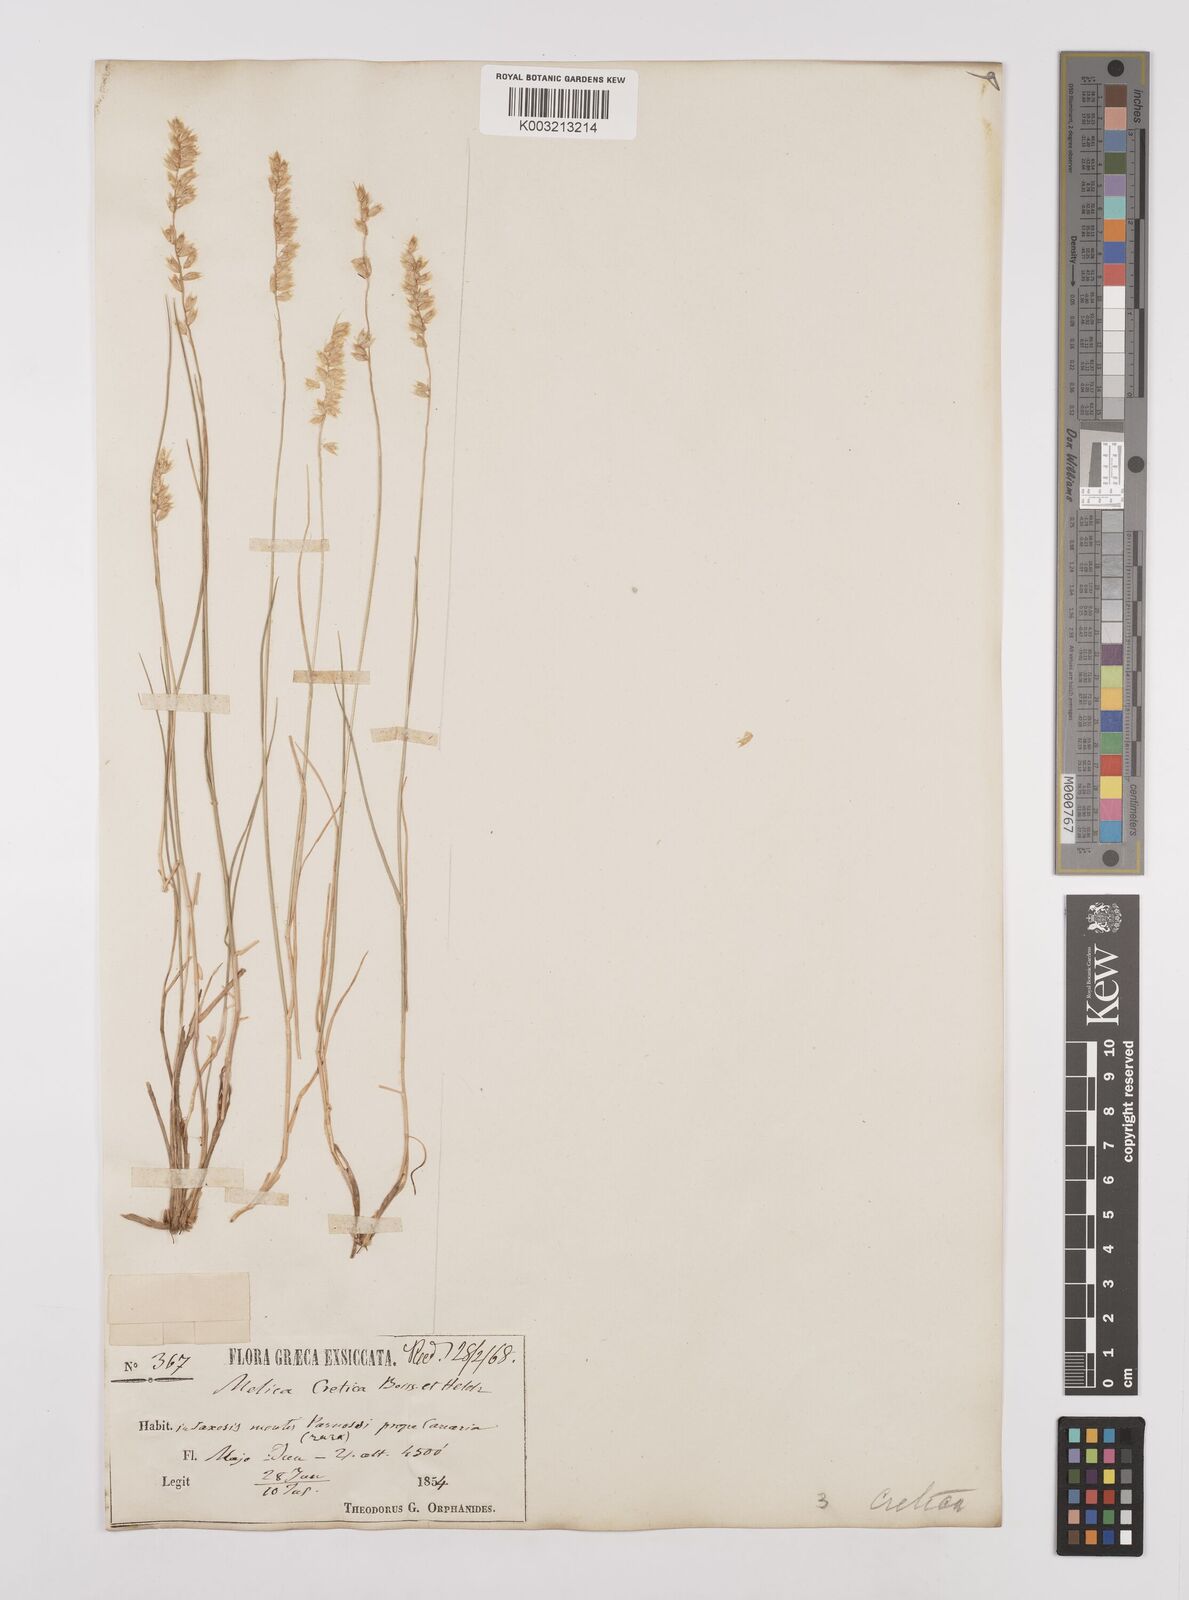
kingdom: Plantae
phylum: Tracheophyta
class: Liliopsida
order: Poales
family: Poaceae
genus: Melica
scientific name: Melica ciliata
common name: Hairy melicgrass
